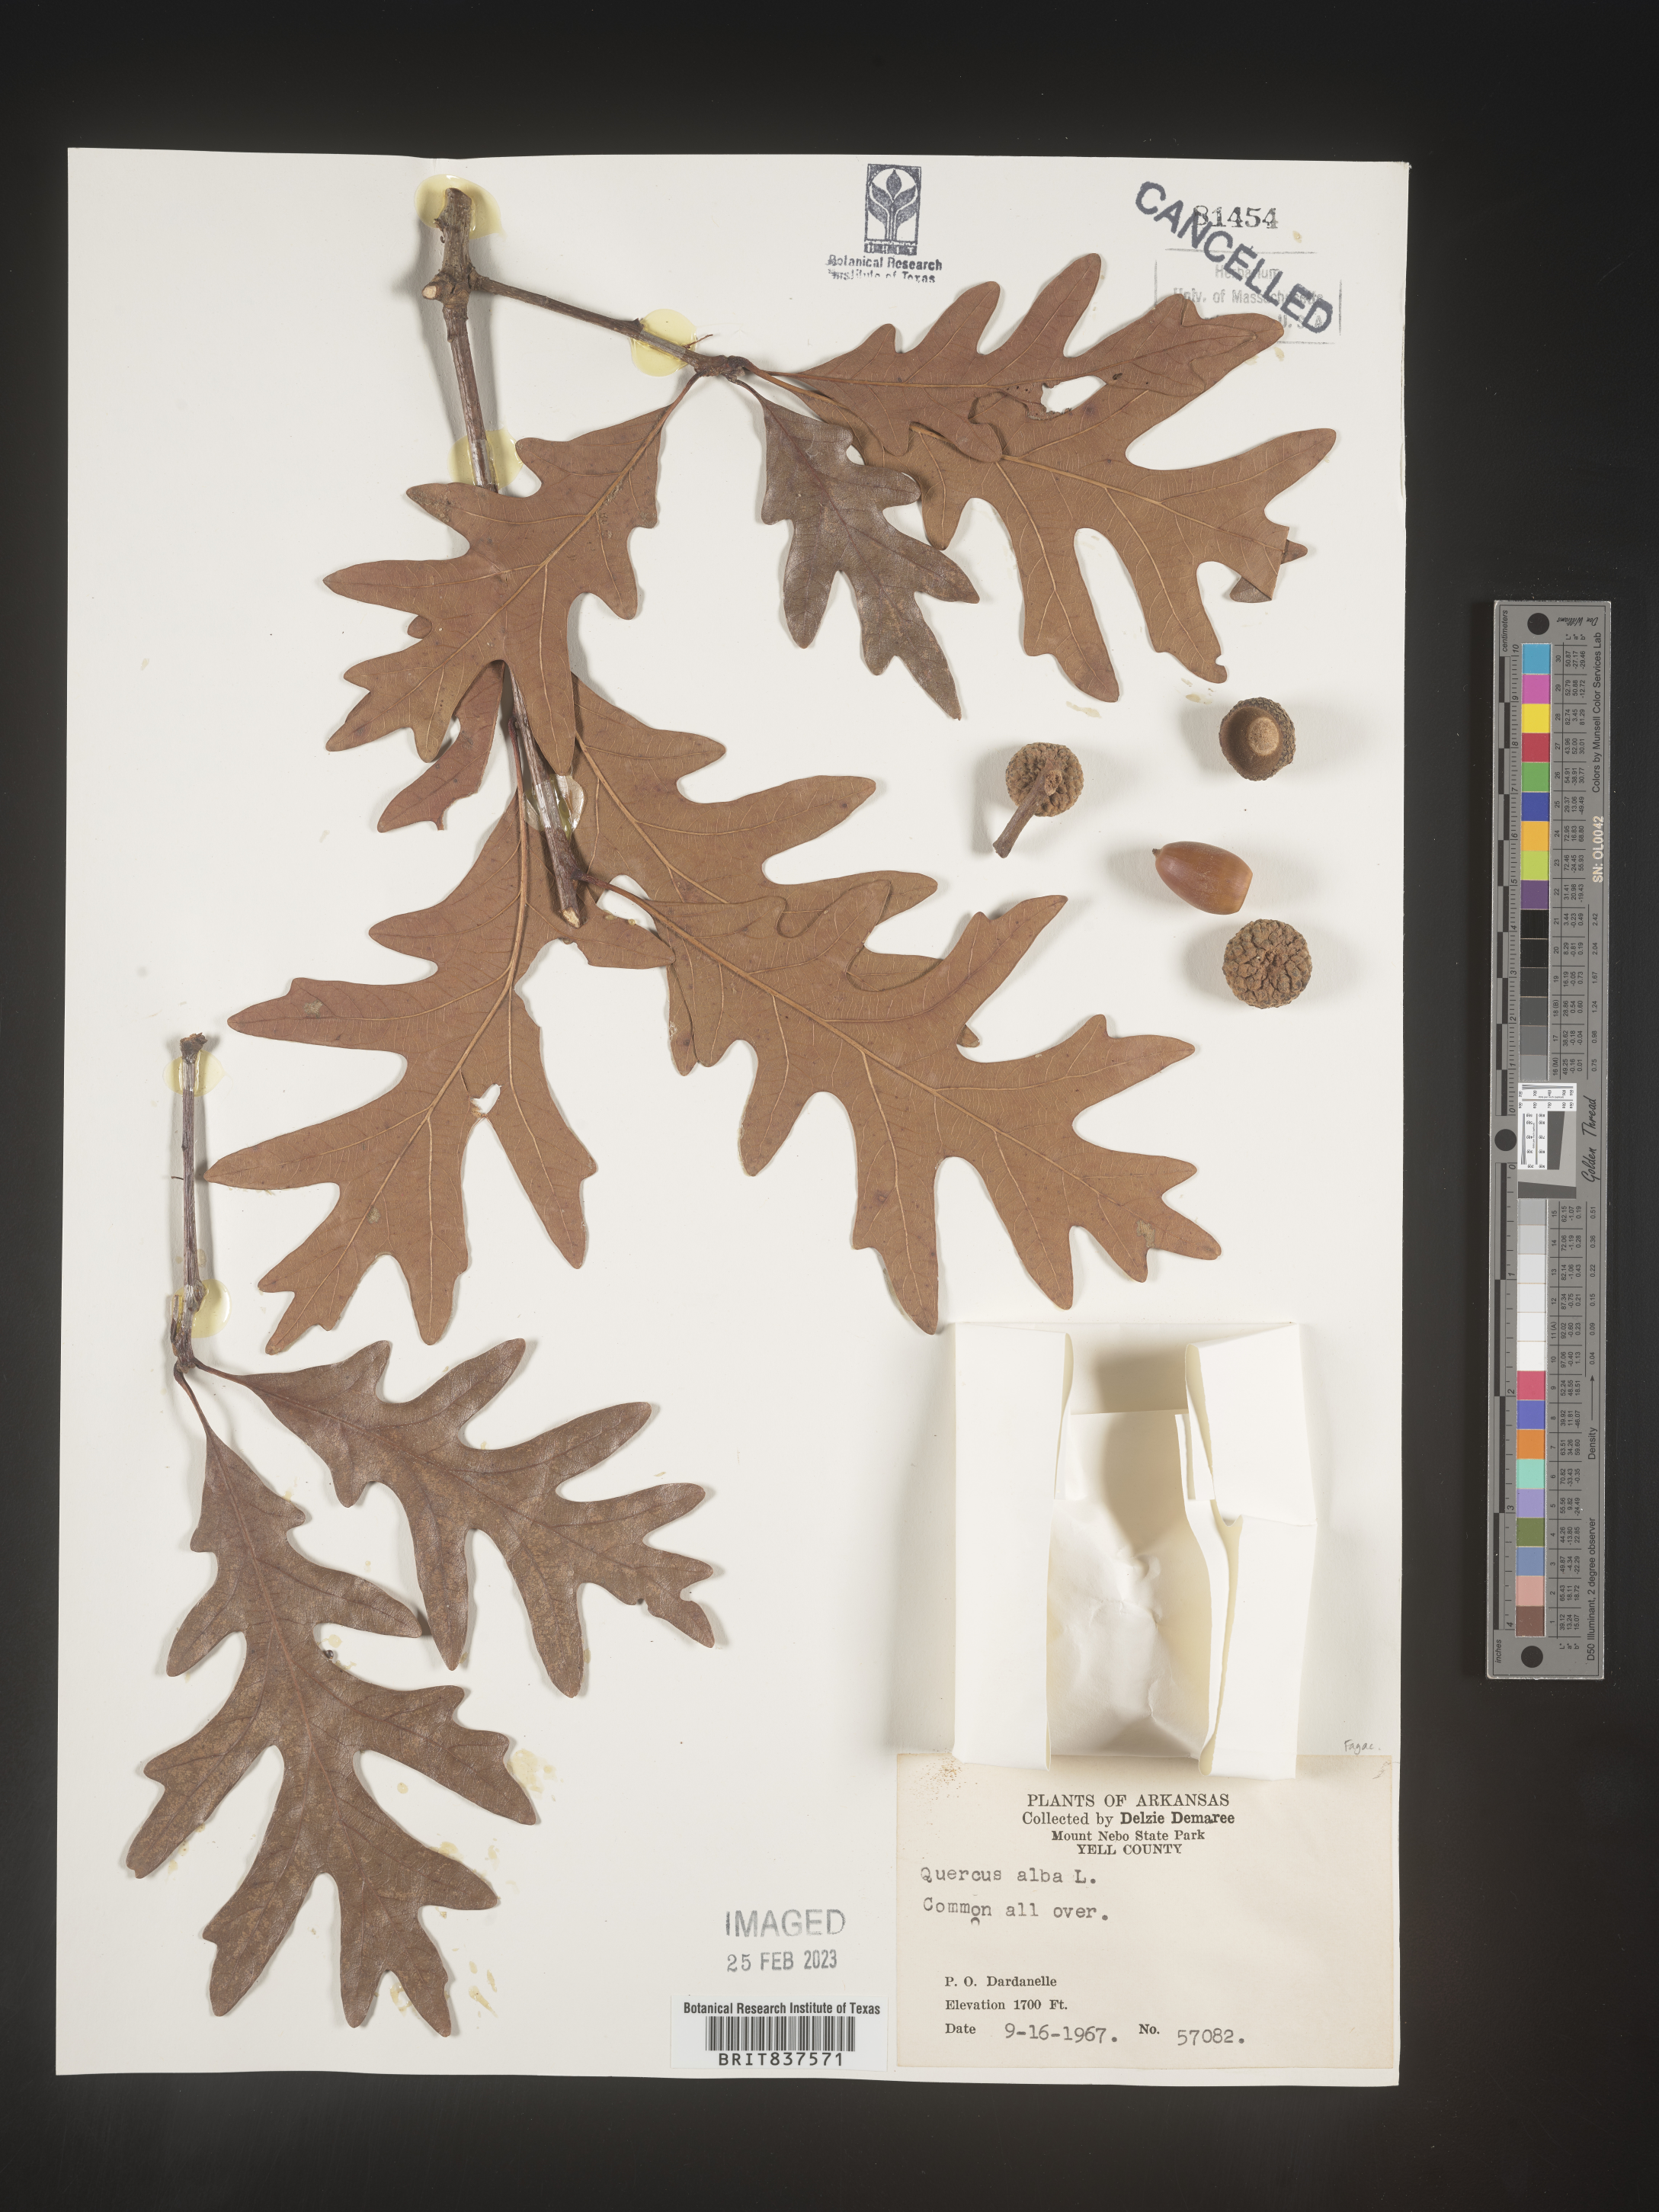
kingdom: Plantae
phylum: Tracheophyta
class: Magnoliopsida
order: Fagales
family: Fagaceae
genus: Quercus
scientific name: Quercus alba
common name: White oak
